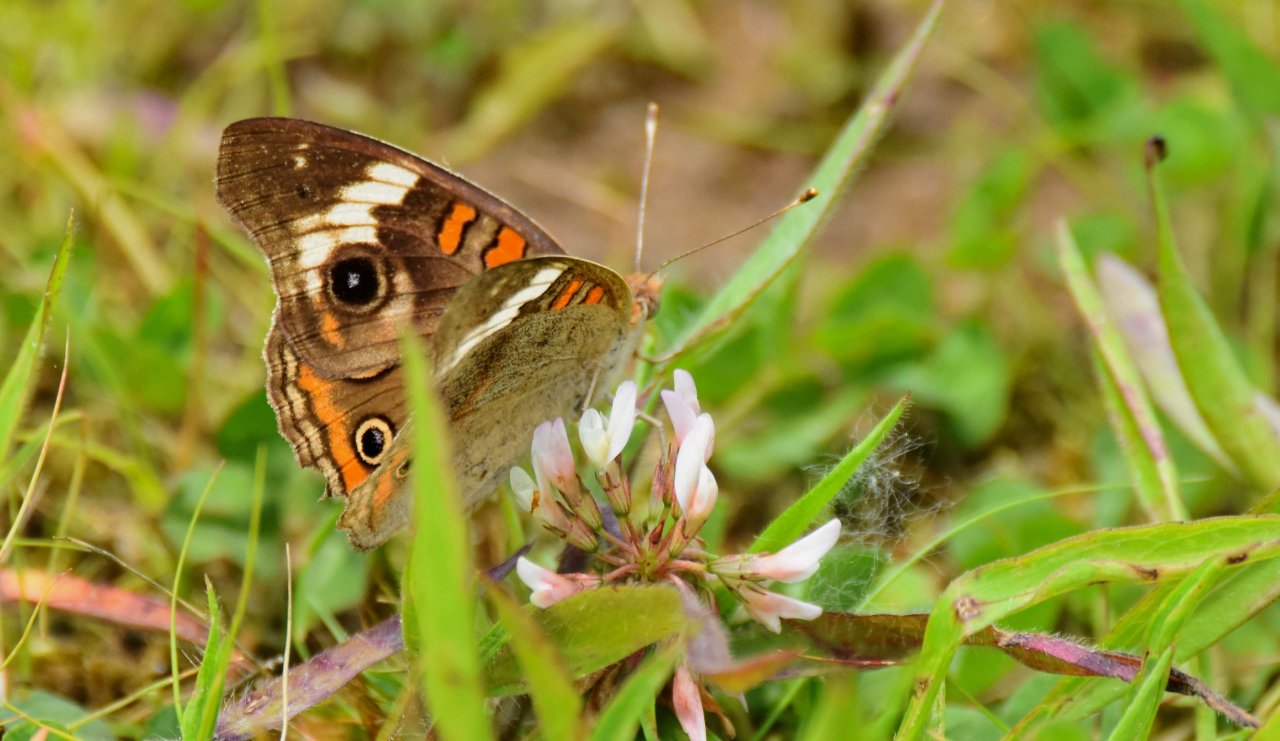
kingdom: Animalia
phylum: Arthropoda
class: Insecta
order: Lepidoptera
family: Nymphalidae
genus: Junonia
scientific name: Junonia coenia
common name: Common Buckeye
